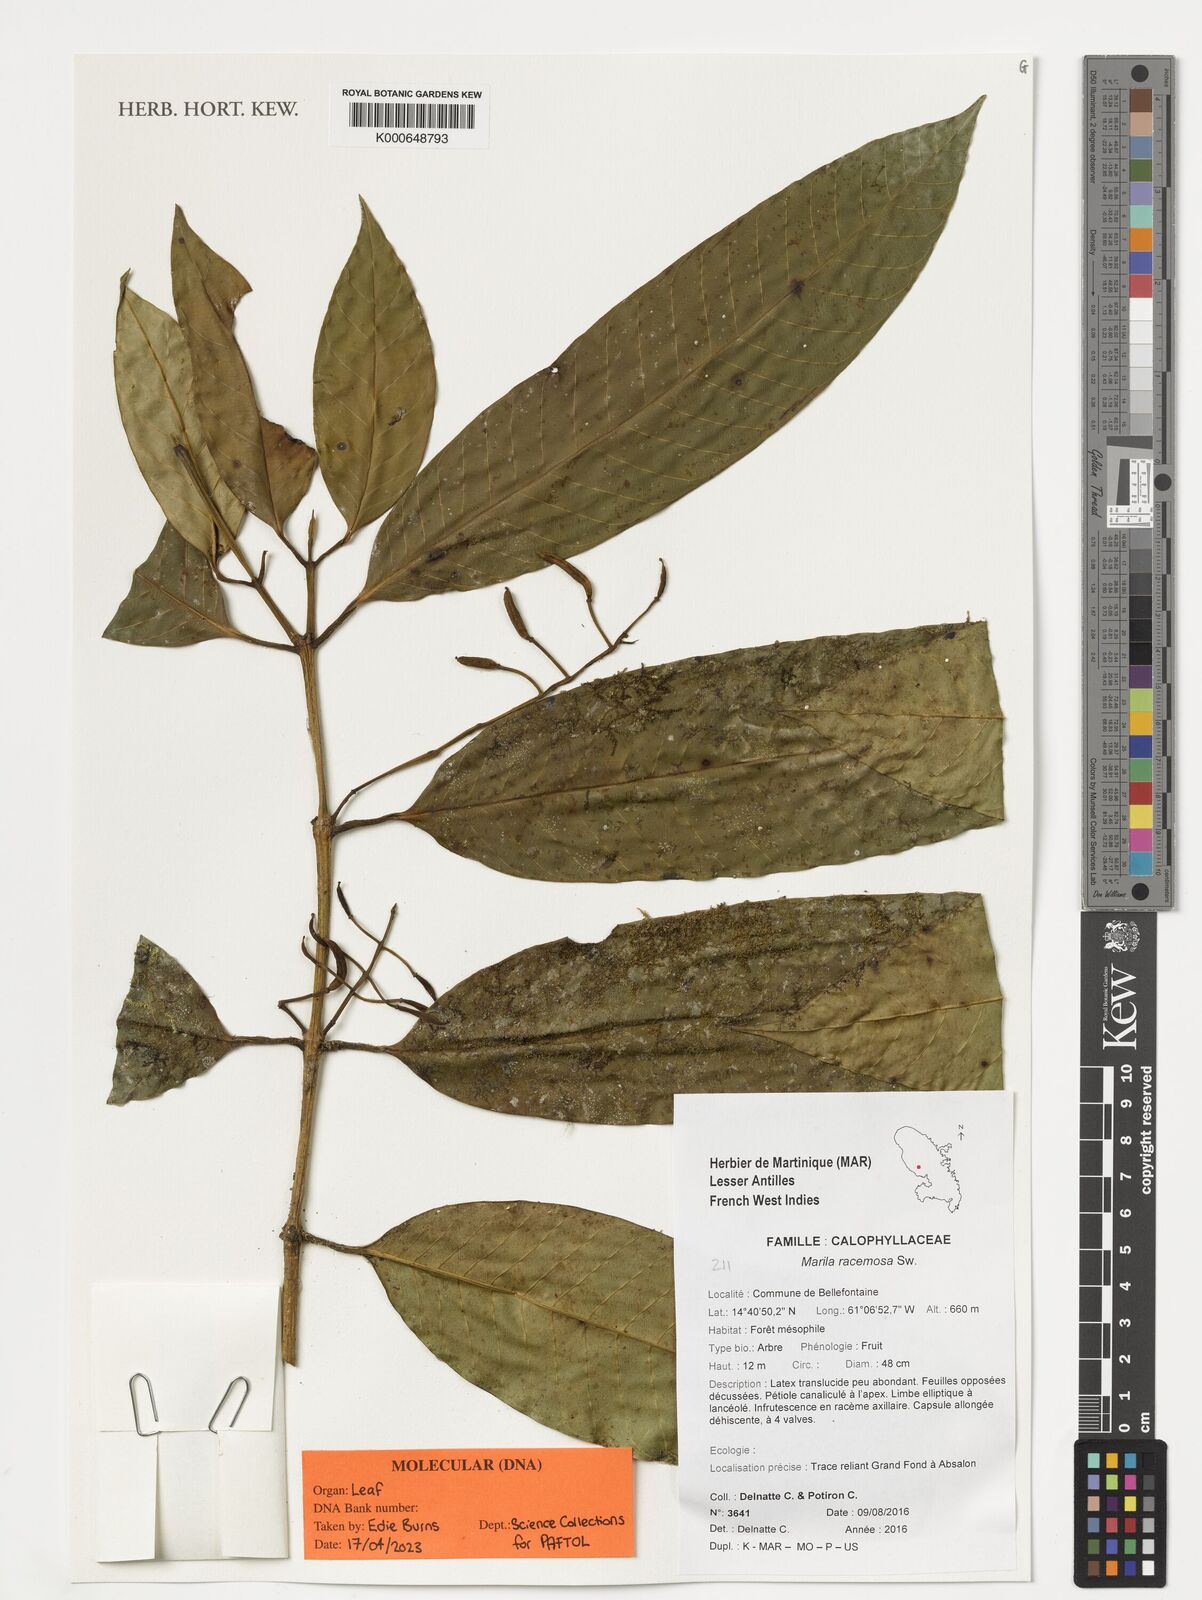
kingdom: Plantae
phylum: Tracheophyta
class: Magnoliopsida
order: Malpighiales
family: Calophyllaceae
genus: Marila
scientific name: Marila racemosa
